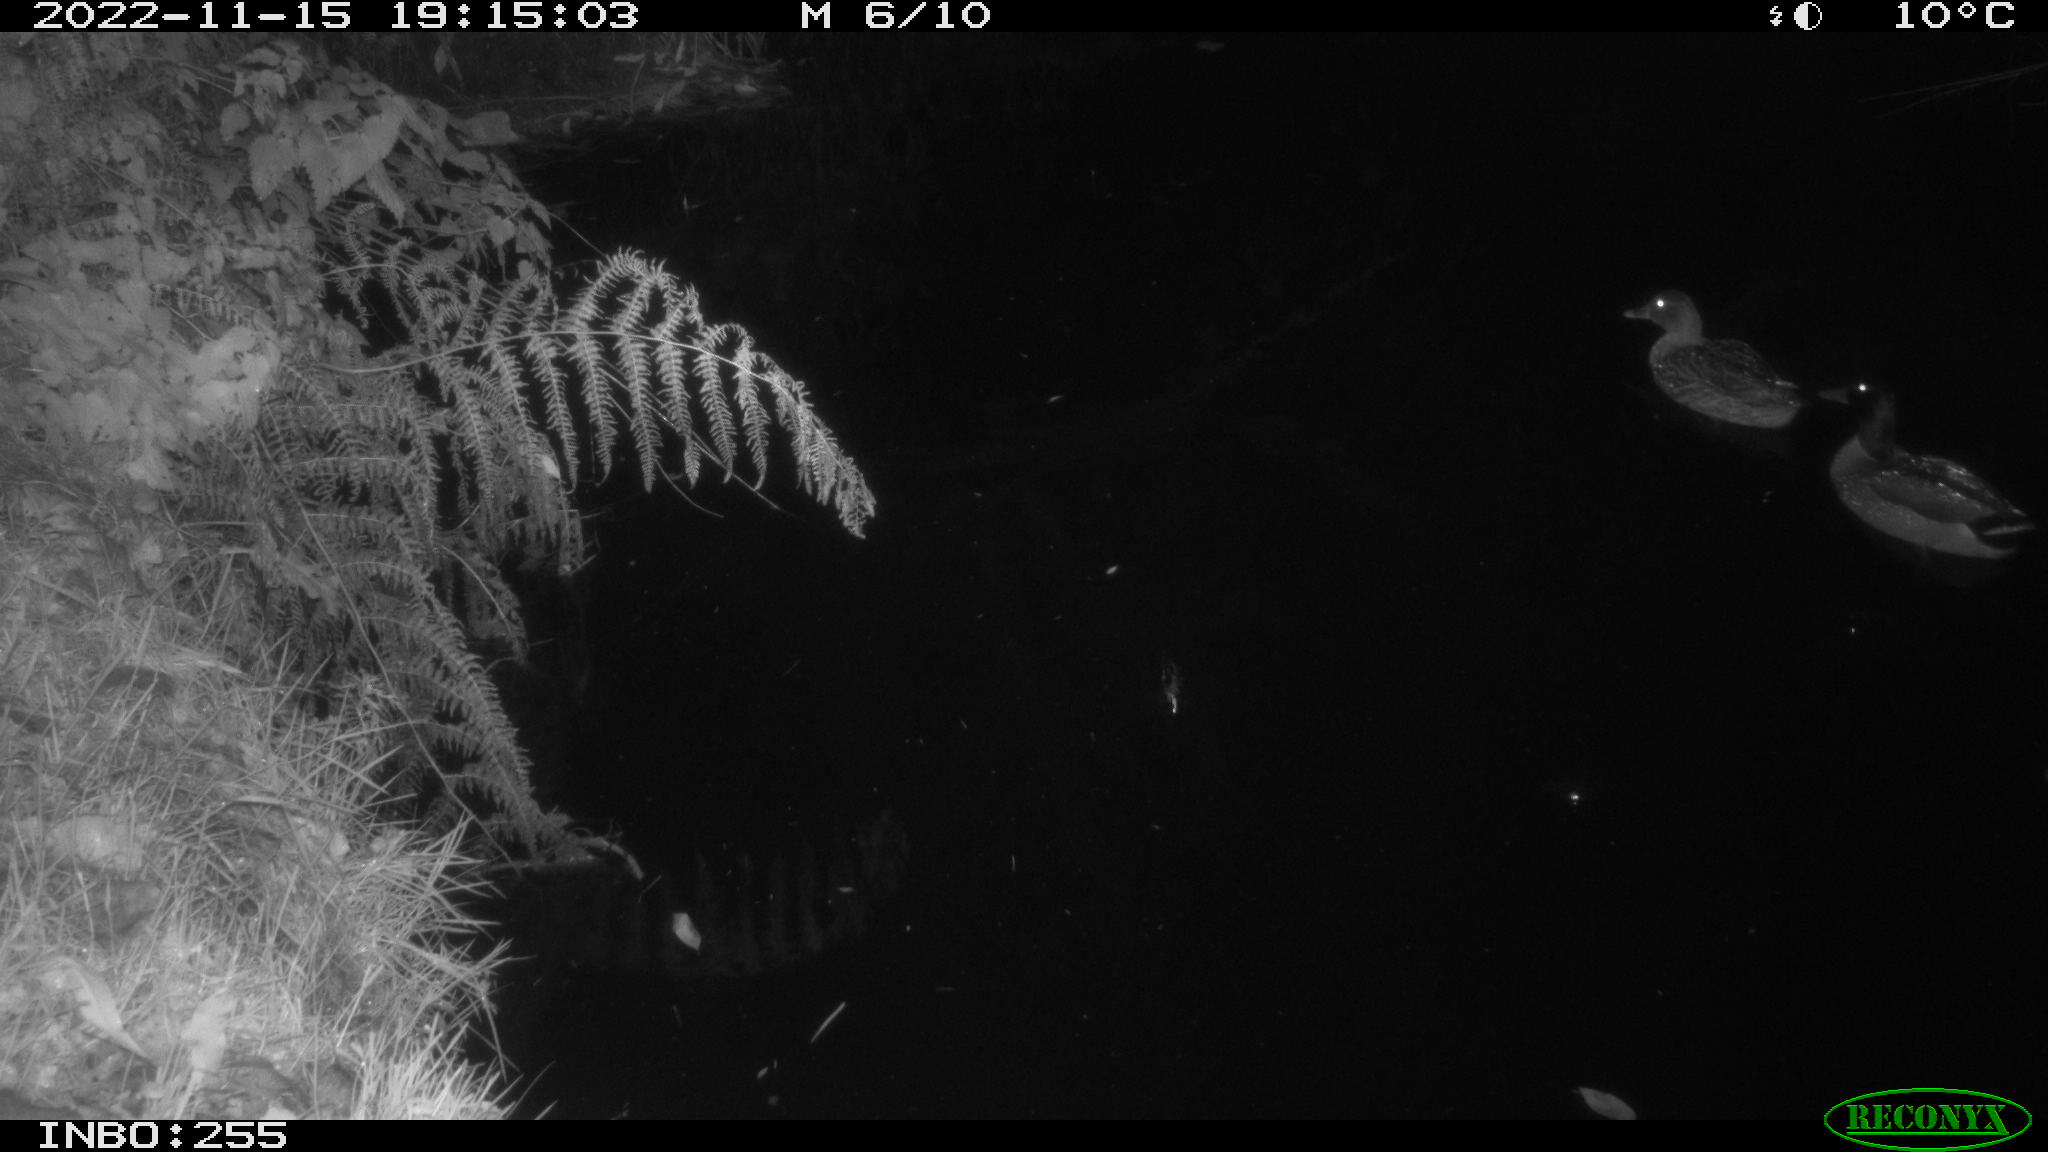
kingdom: Animalia
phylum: Chordata
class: Aves
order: Anseriformes
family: Anatidae
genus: Anas
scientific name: Anas
